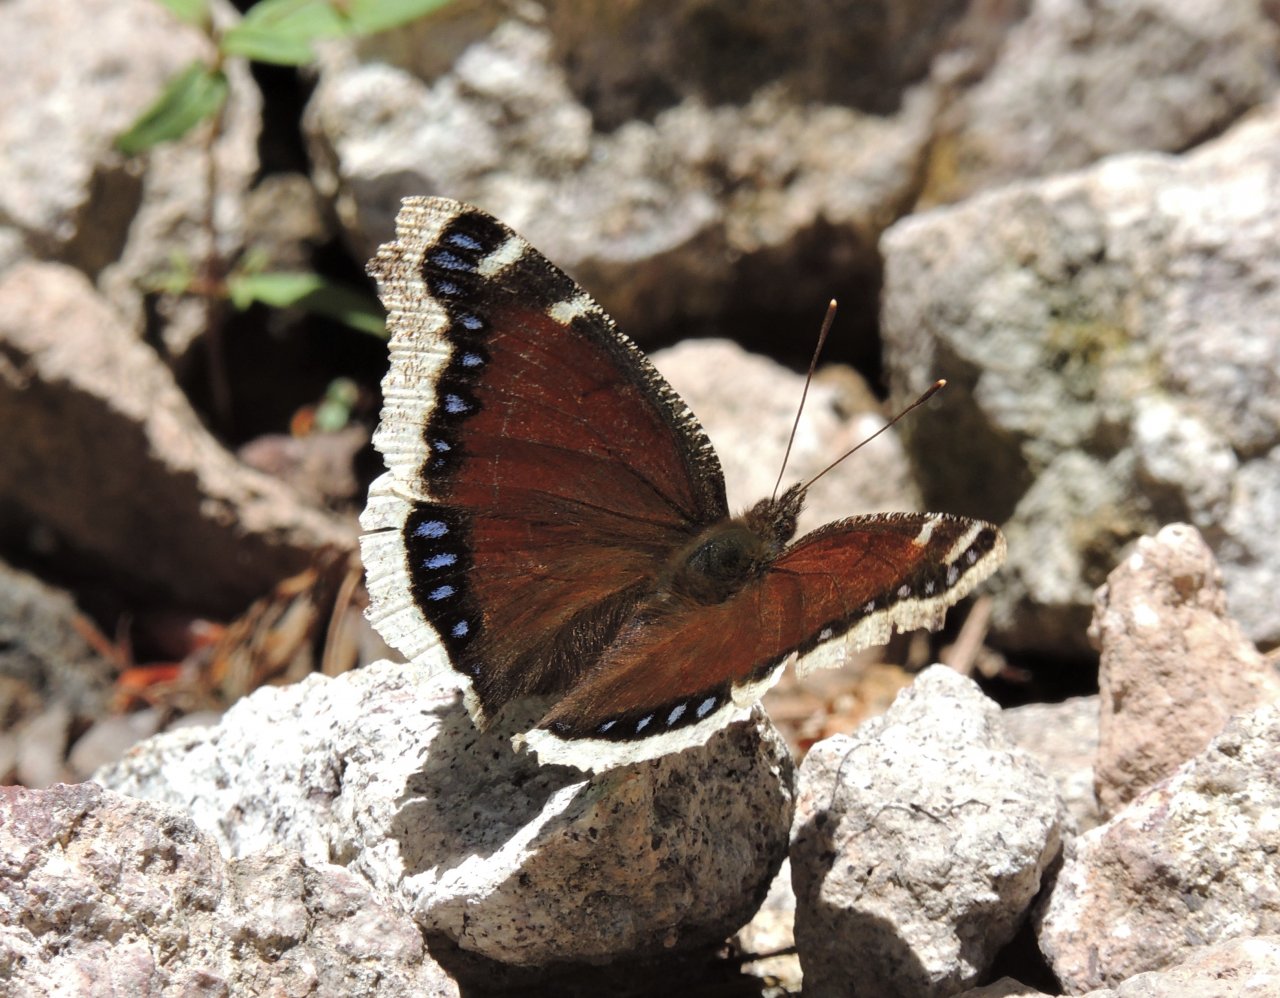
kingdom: Animalia
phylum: Arthropoda
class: Insecta
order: Lepidoptera
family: Nymphalidae
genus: Nymphalis
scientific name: Nymphalis antiopa
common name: Mourning Cloak
